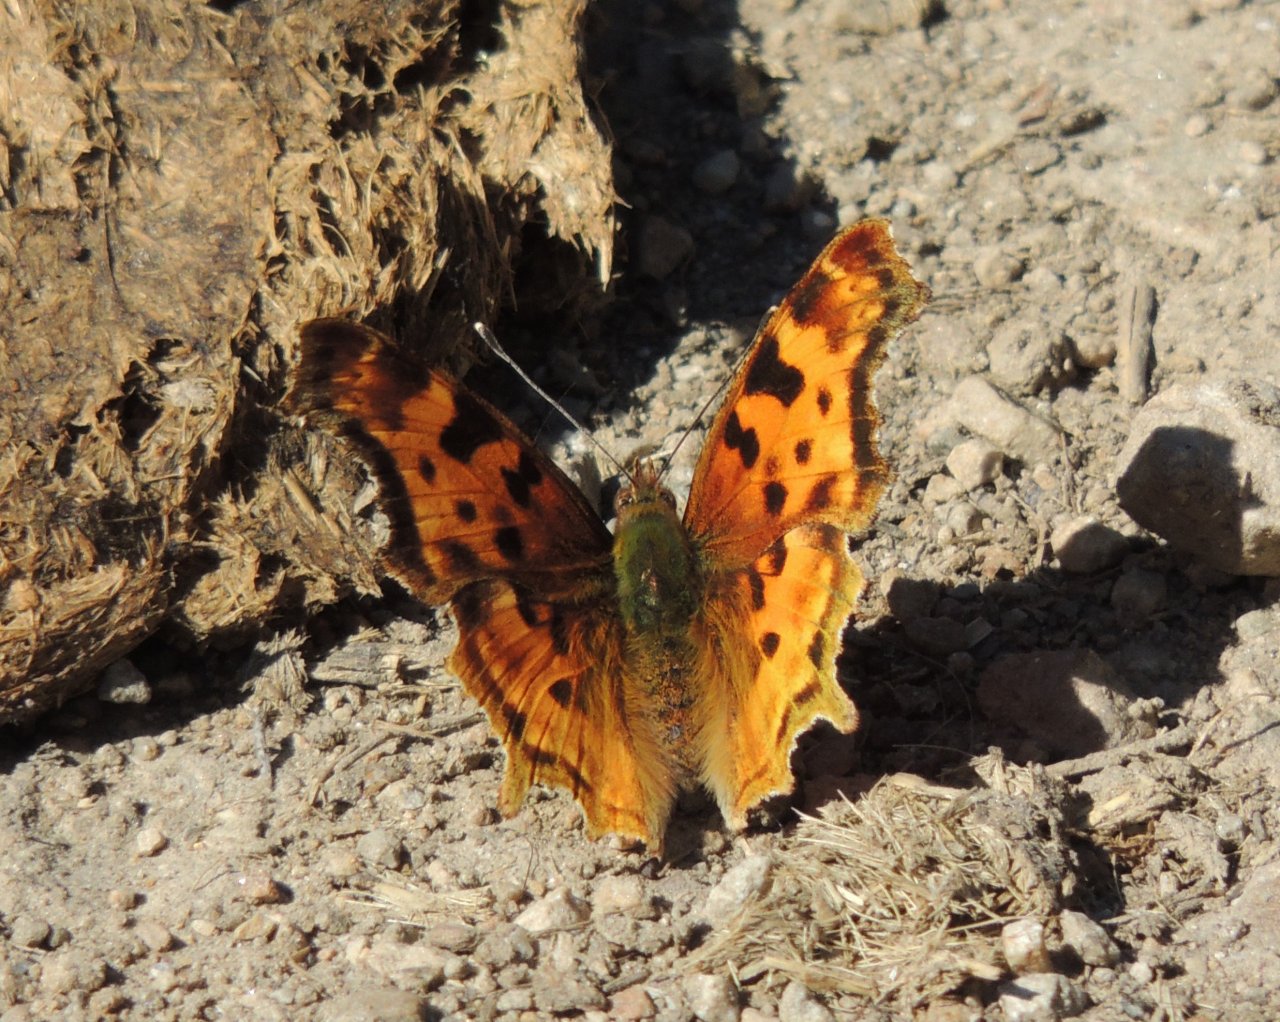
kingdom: Animalia
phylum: Arthropoda
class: Insecta
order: Lepidoptera
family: Nymphalidae
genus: Polygonia
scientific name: Polygonia satyrus
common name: Satyr Comma
